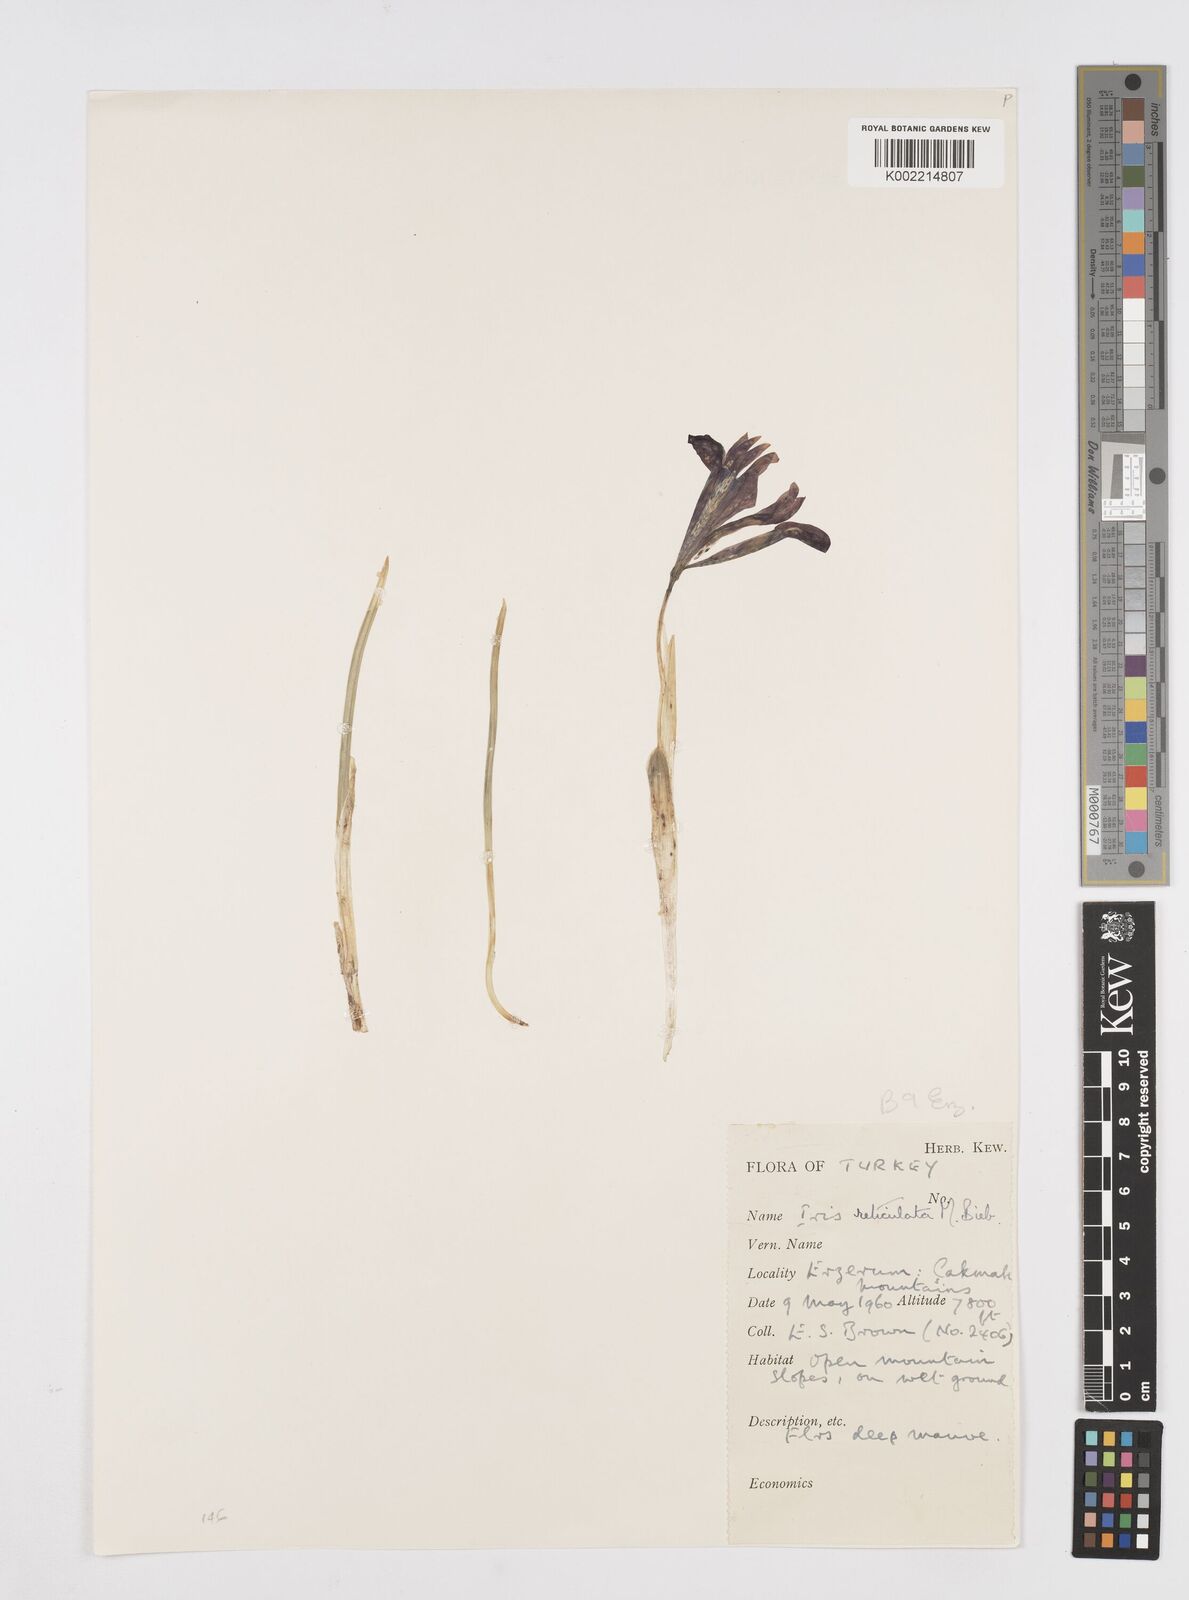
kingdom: Plantae
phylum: Tracheophyta
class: Liliopsida
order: Asparagales
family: Iridaceae
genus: Iris
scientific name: Iris reticulata
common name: Netted iris
